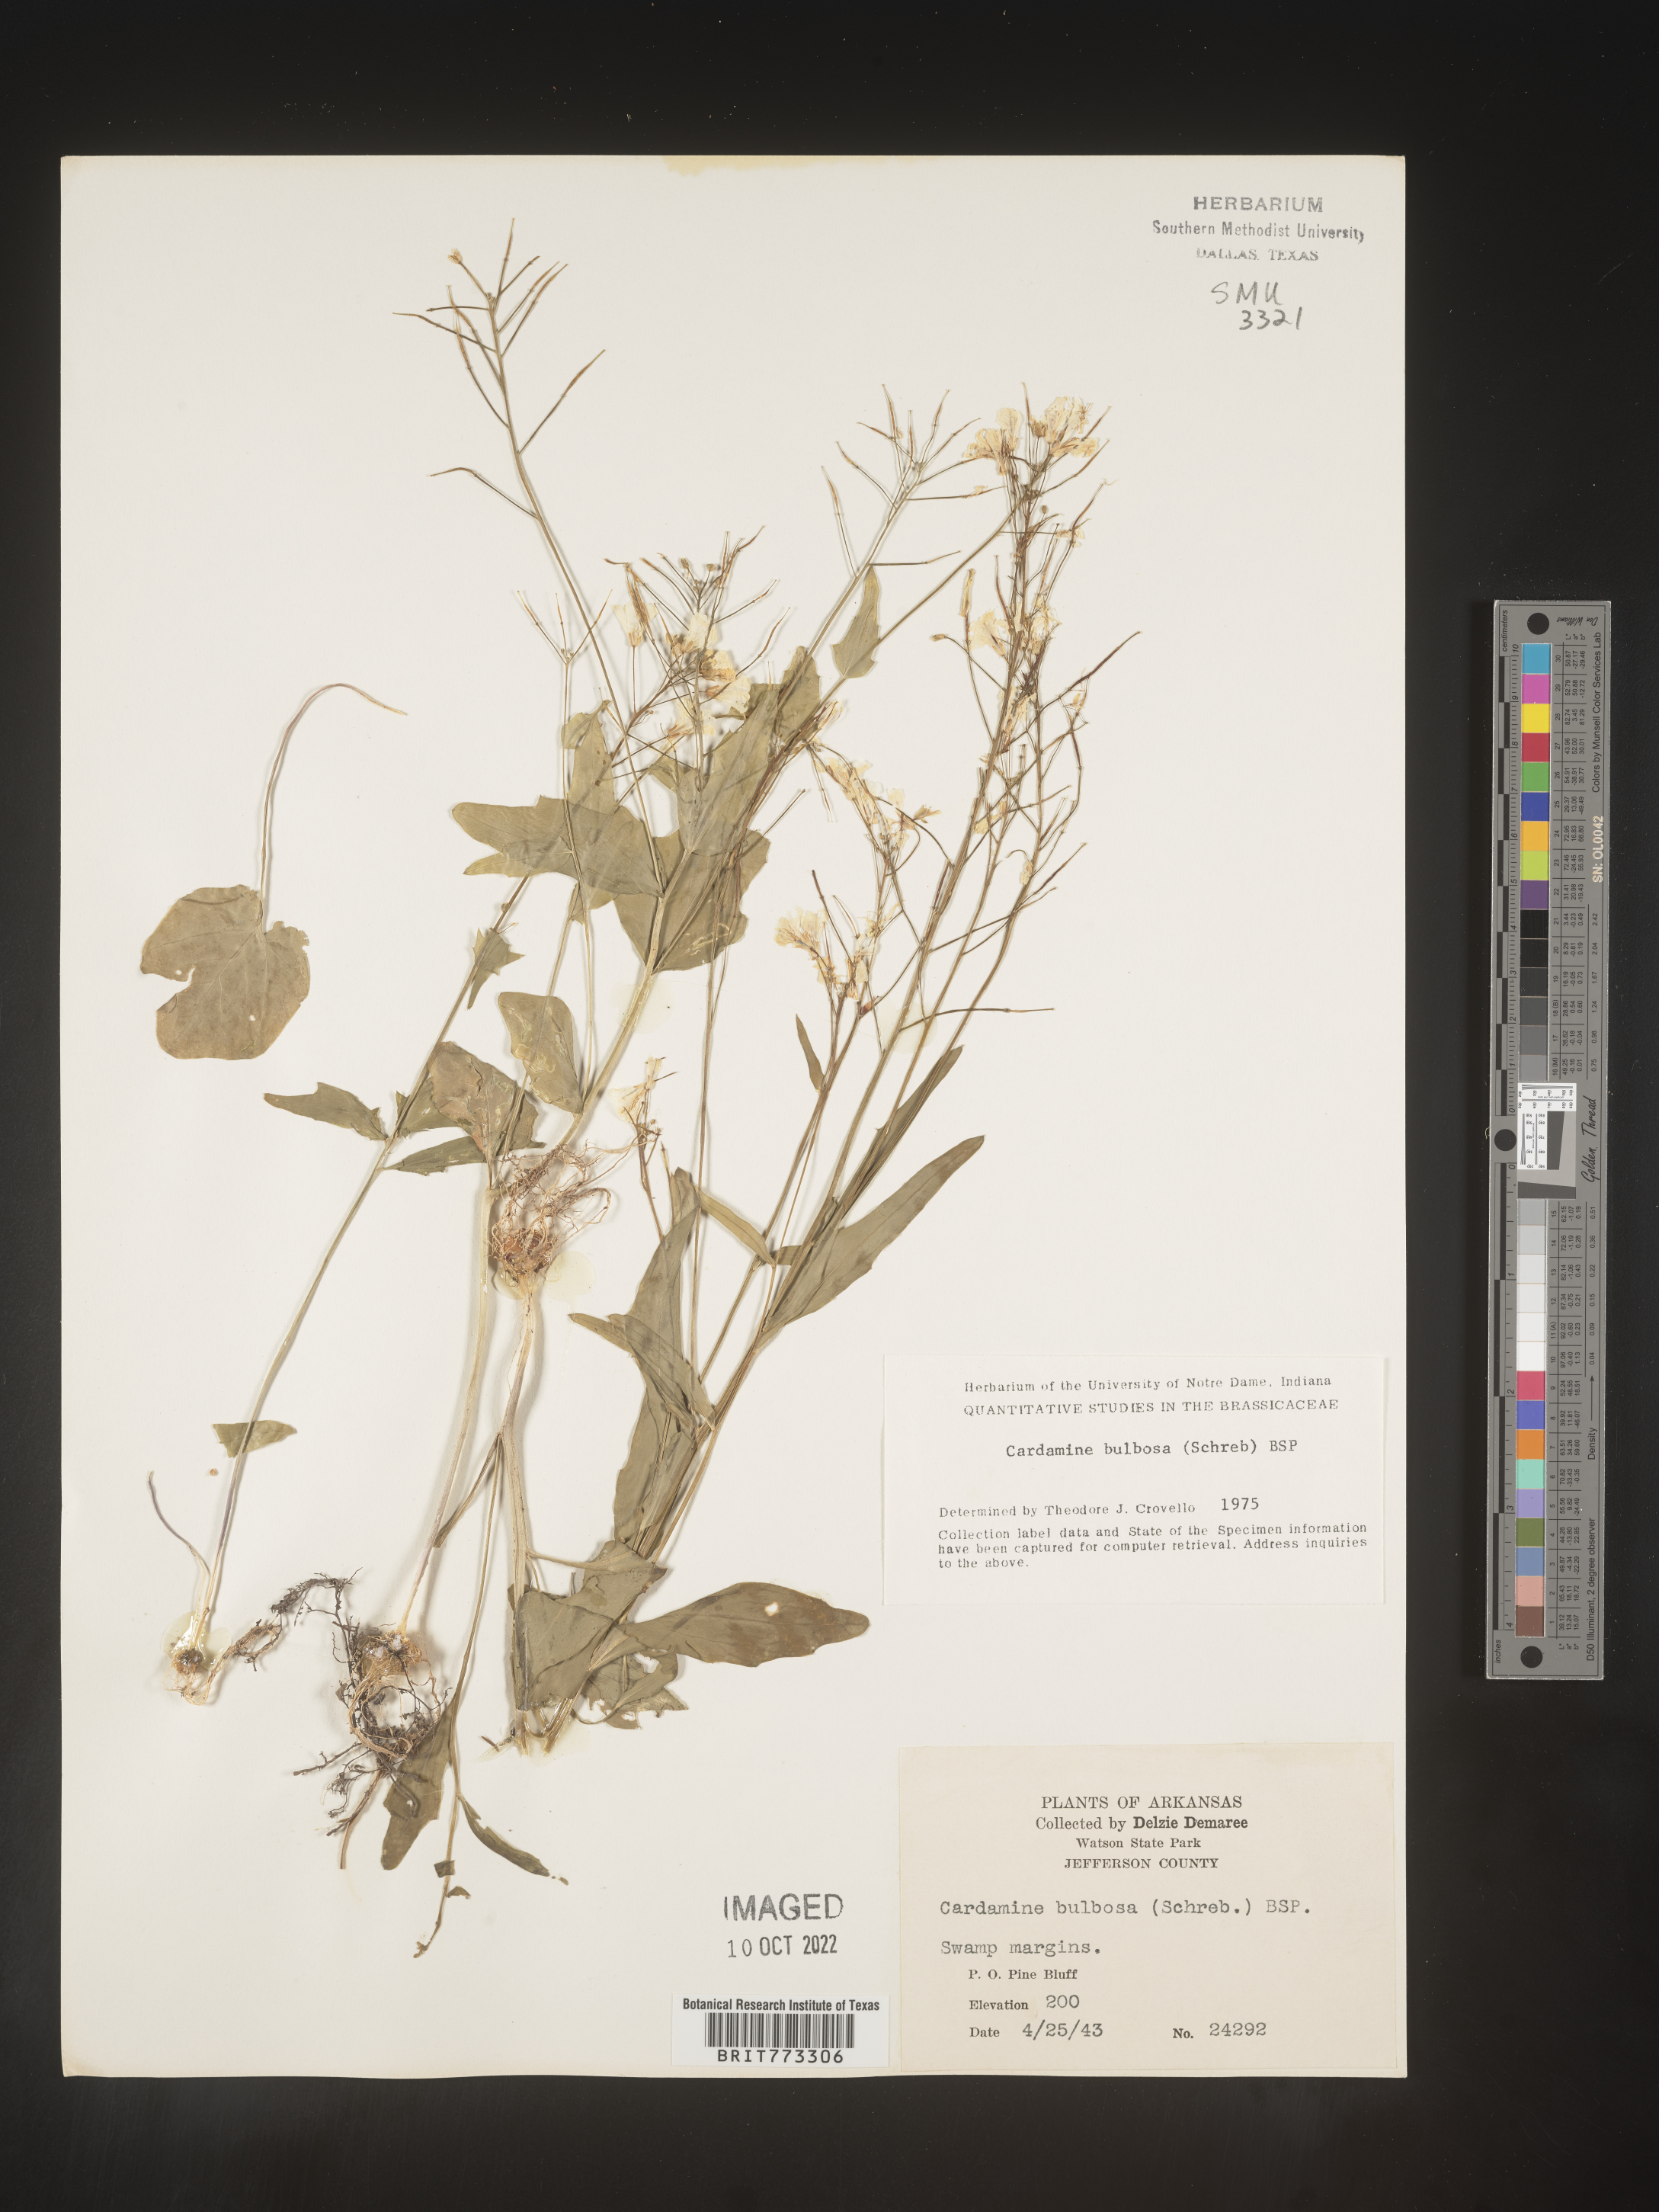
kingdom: Plantae
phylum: Tracheophyta
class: Magnoliopsida
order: Brassicales
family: Brassicaceae
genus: Cardamine
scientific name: Cardamine bulbosa
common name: Spring cress
